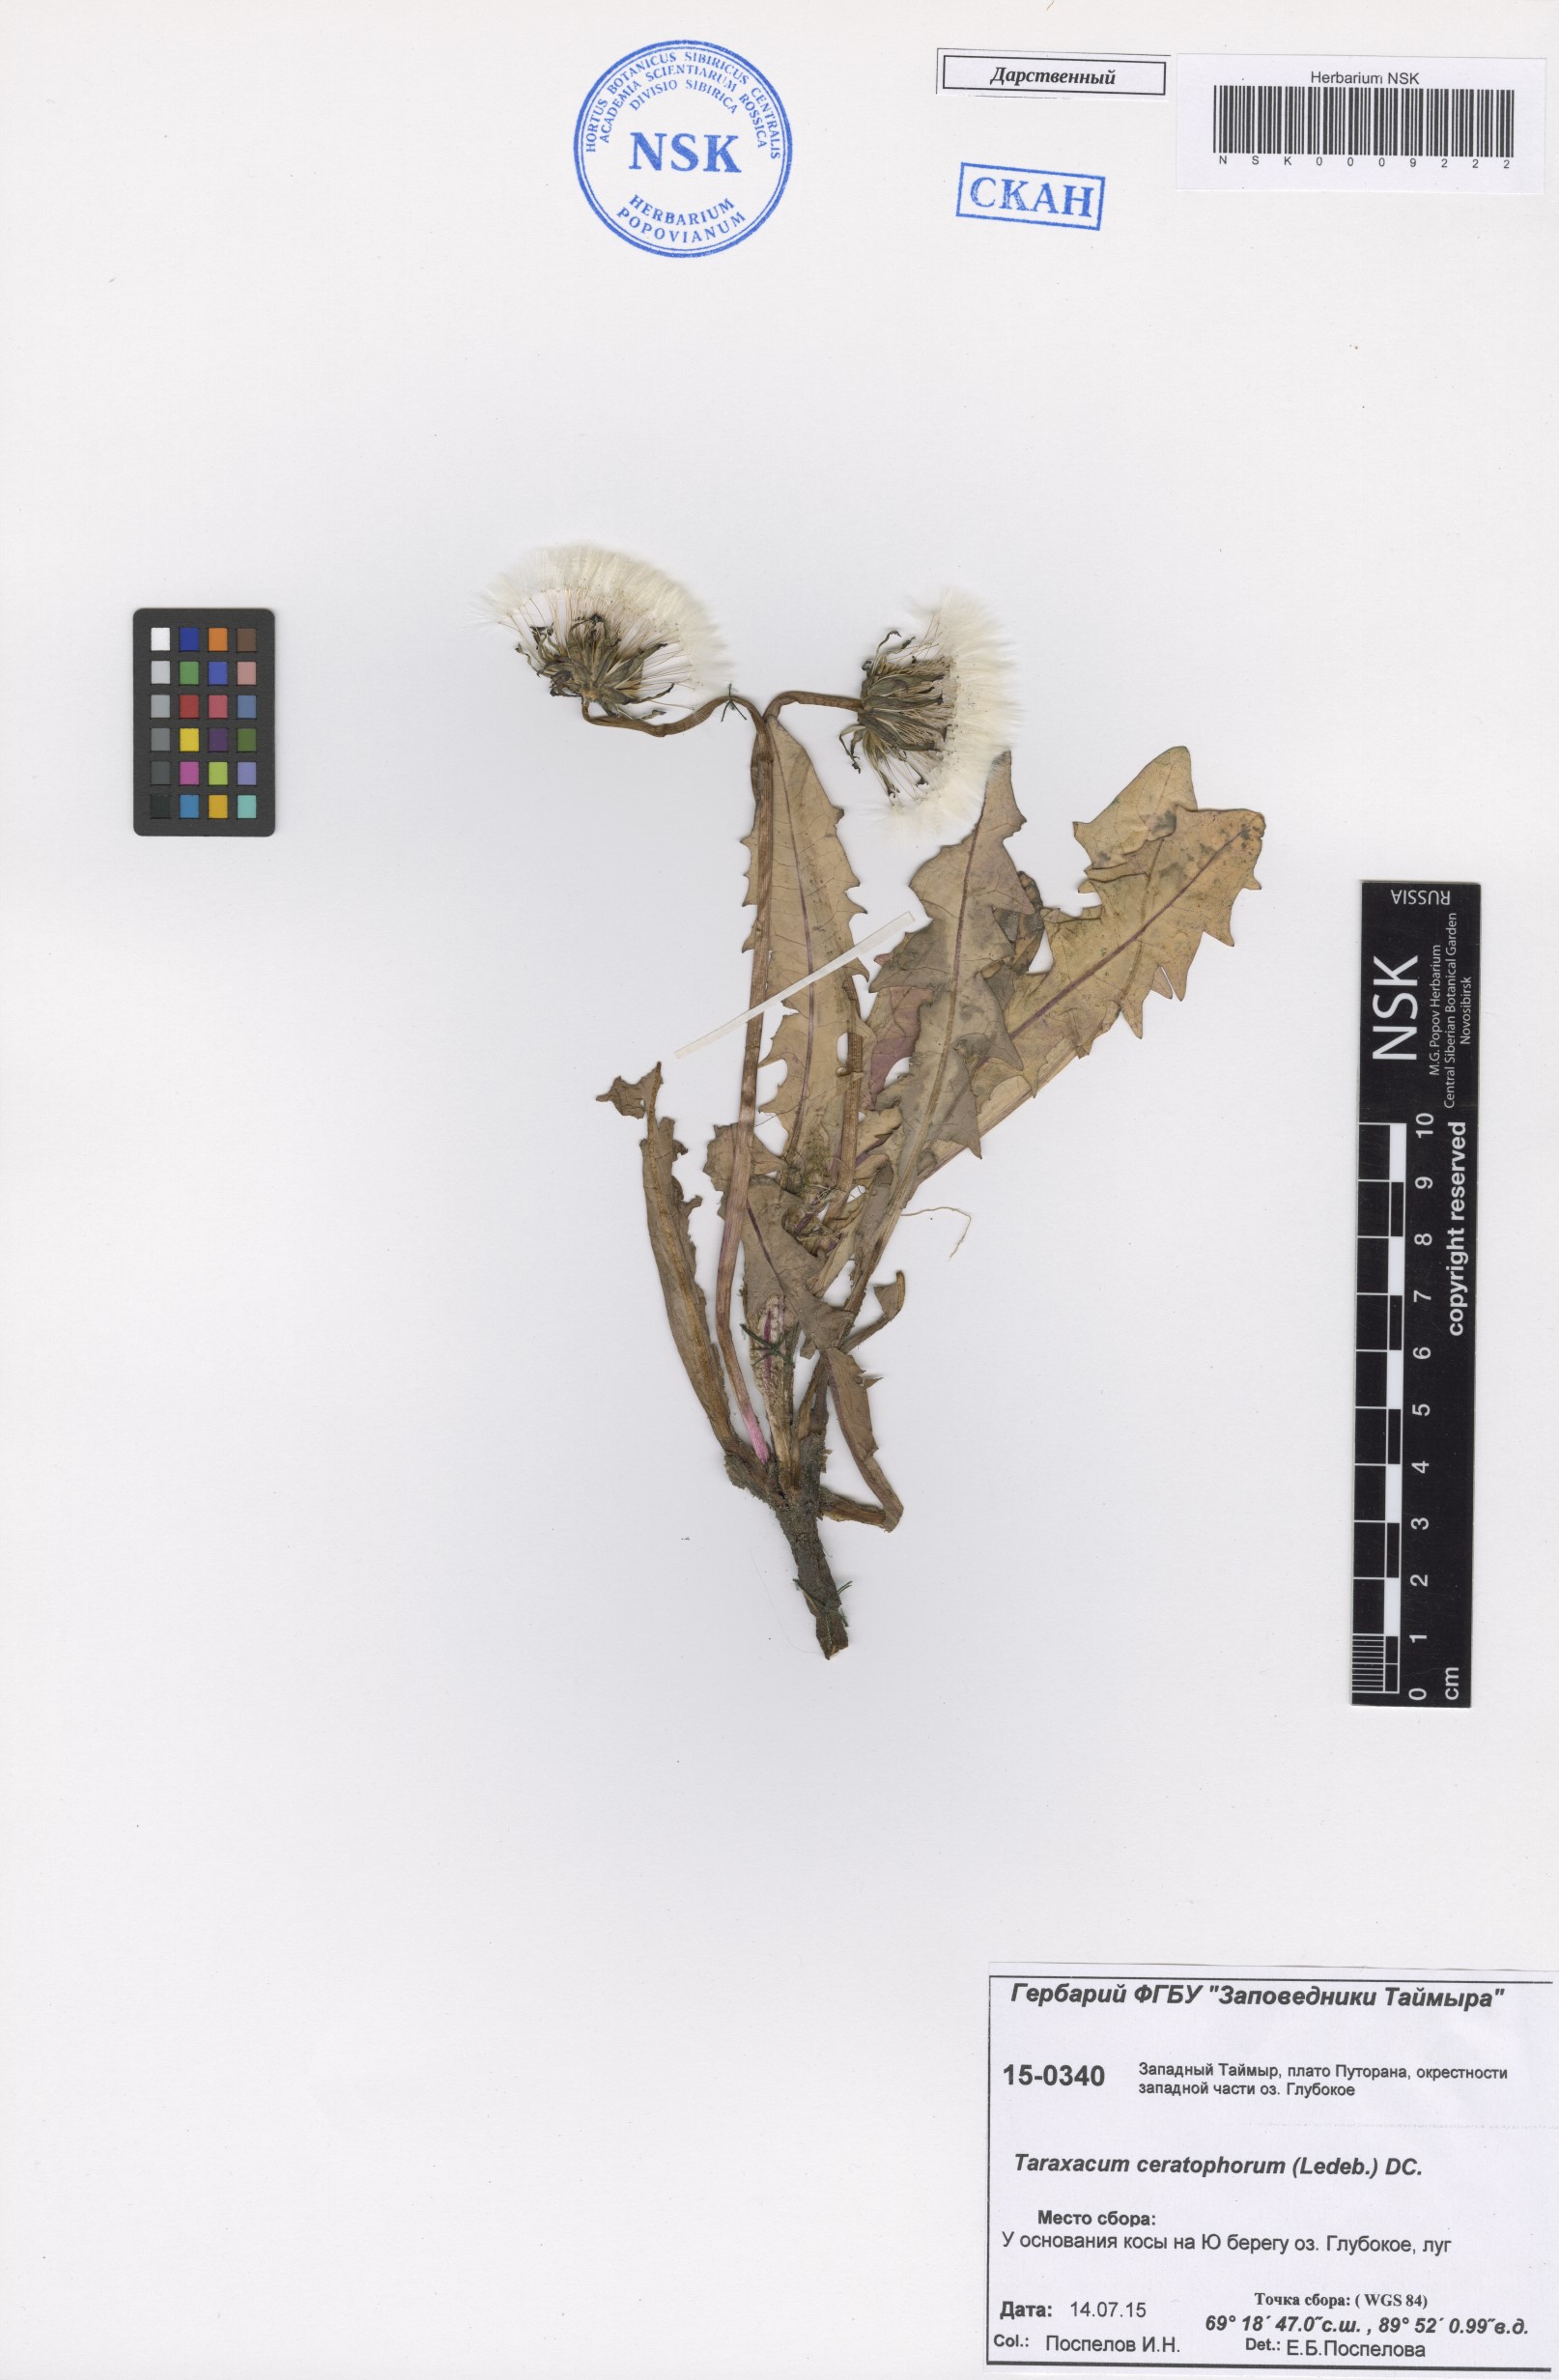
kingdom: Plantae
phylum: Tracheophyta
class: Magnoliopsida
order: Asterales
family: Asteraceae
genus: Taraxacum
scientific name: Taraxacum ceratophorum
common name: Horn-bearing dandelion
